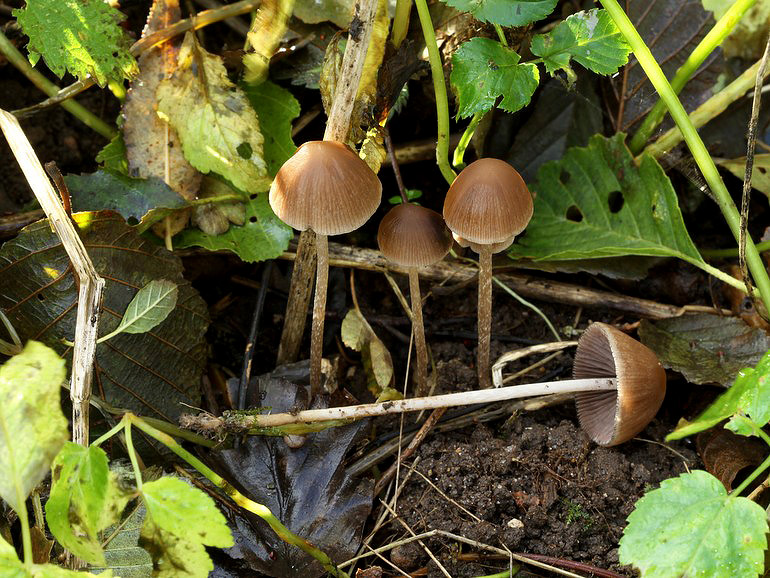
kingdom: Fungi
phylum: Basidiomycota
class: Agaricomycetes
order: Agaricales
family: Psathyrellaceae
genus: Psathyrella
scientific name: Psathyrella microrhiza
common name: rod-mørkhat
